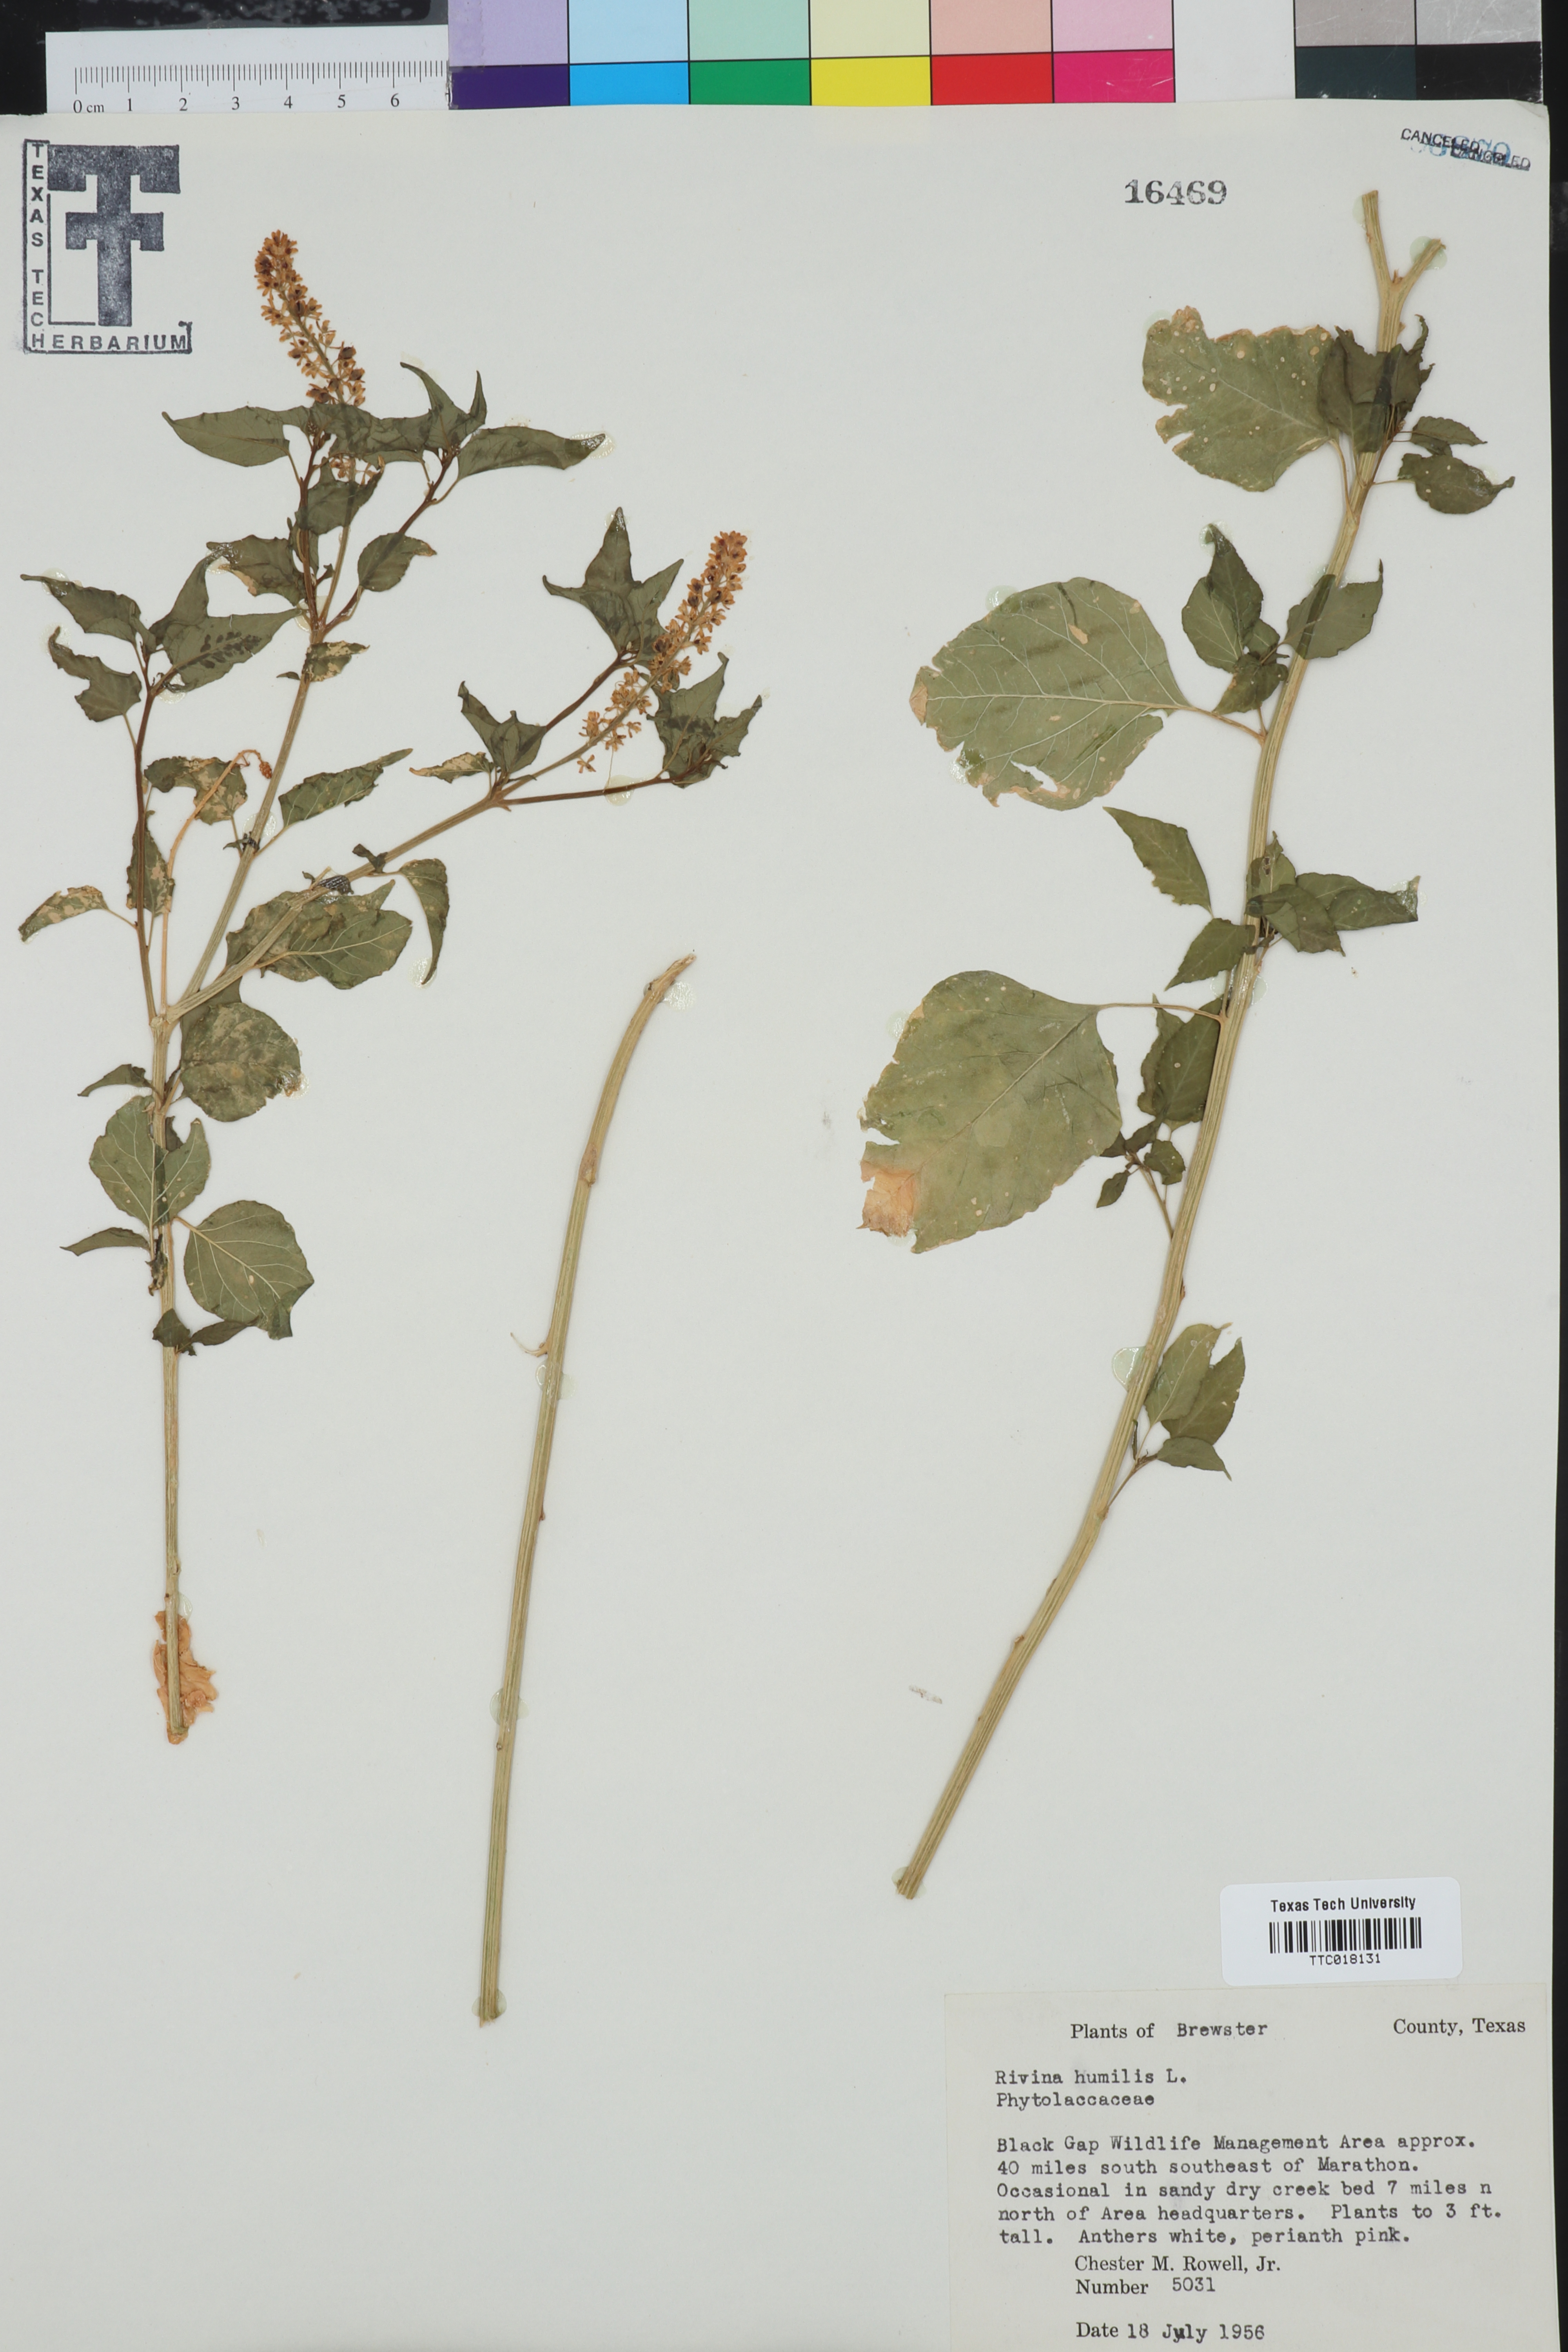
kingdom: Plantae
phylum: Tracheophyta
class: Magnoliopsida
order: Caryophyllales
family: Phytolaccaceae
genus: Rivina
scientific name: Rivina humilis
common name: Rougeplant
